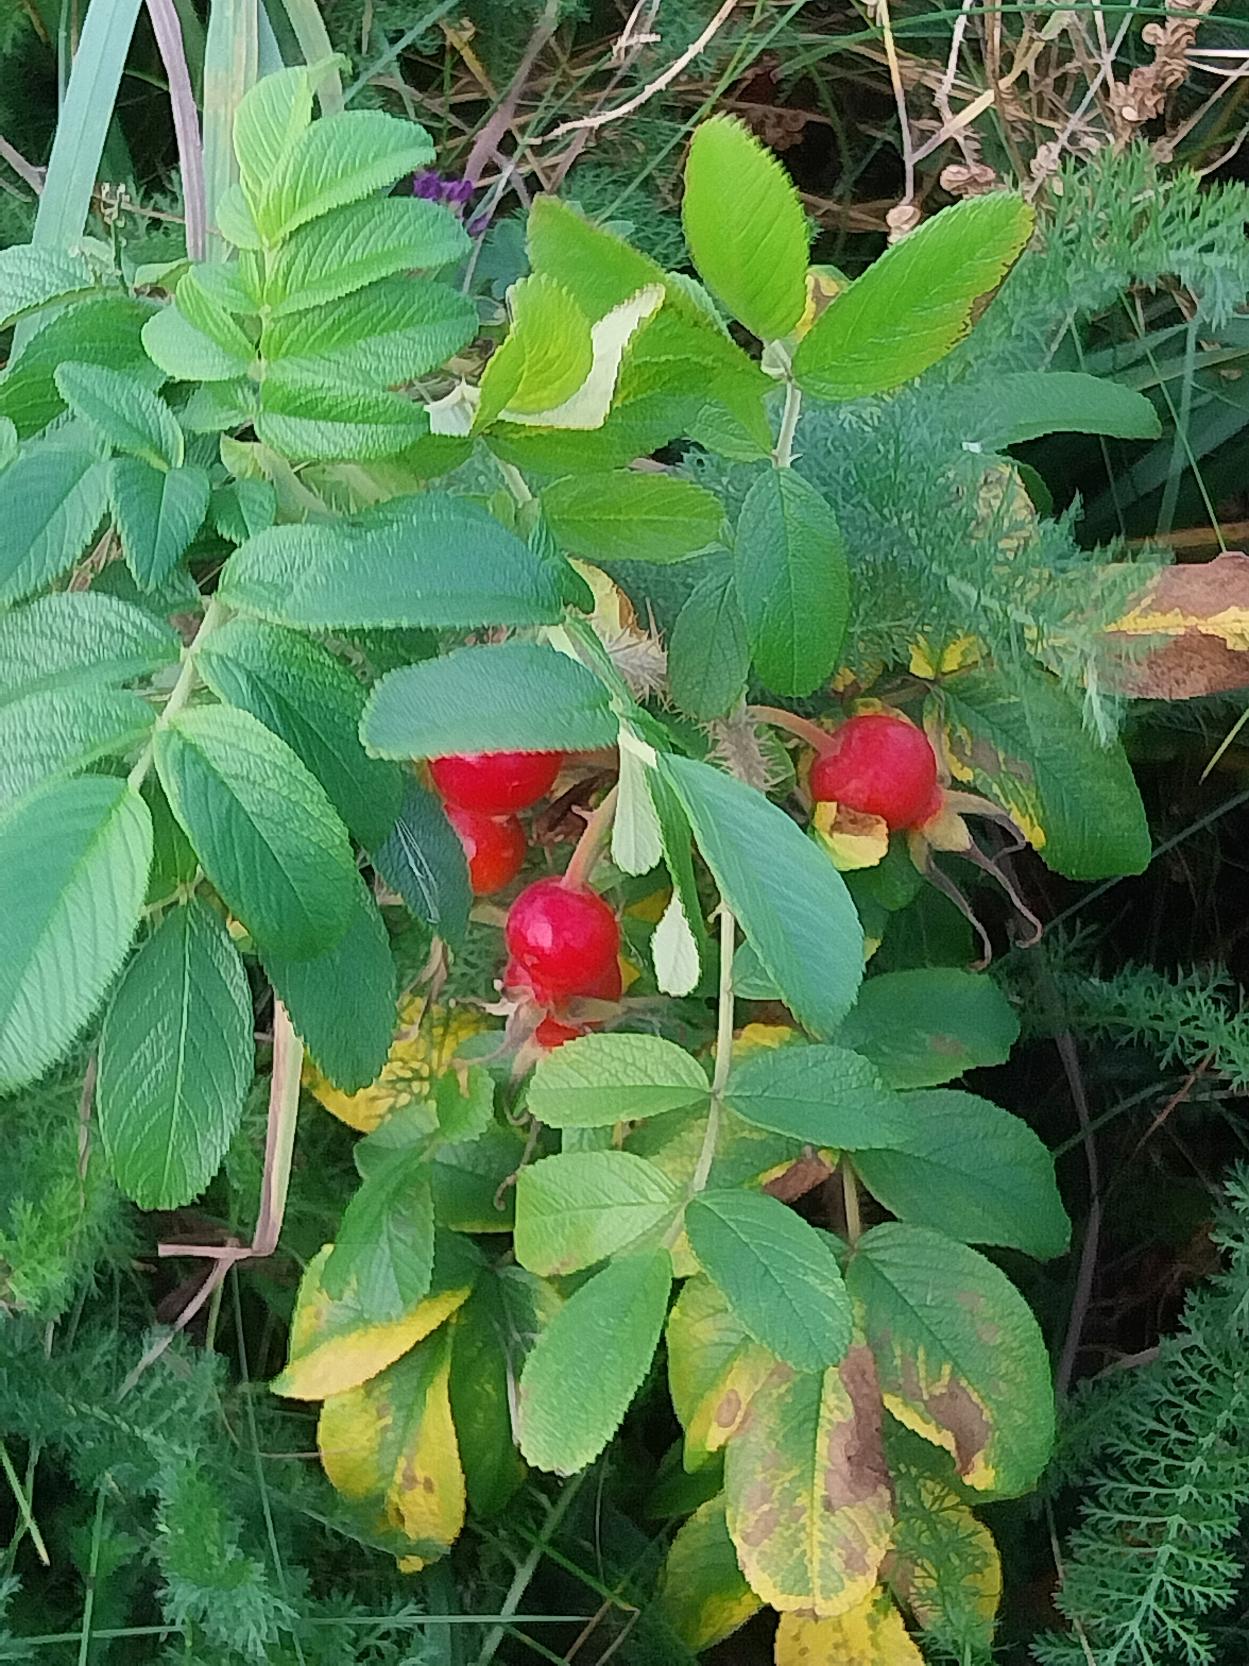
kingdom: Plantae
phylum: Tracheophyta
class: Magnoliopsida
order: Rosales
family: Rosaceae
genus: Rosa
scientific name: Rosa rugosa
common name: Rynket rose
